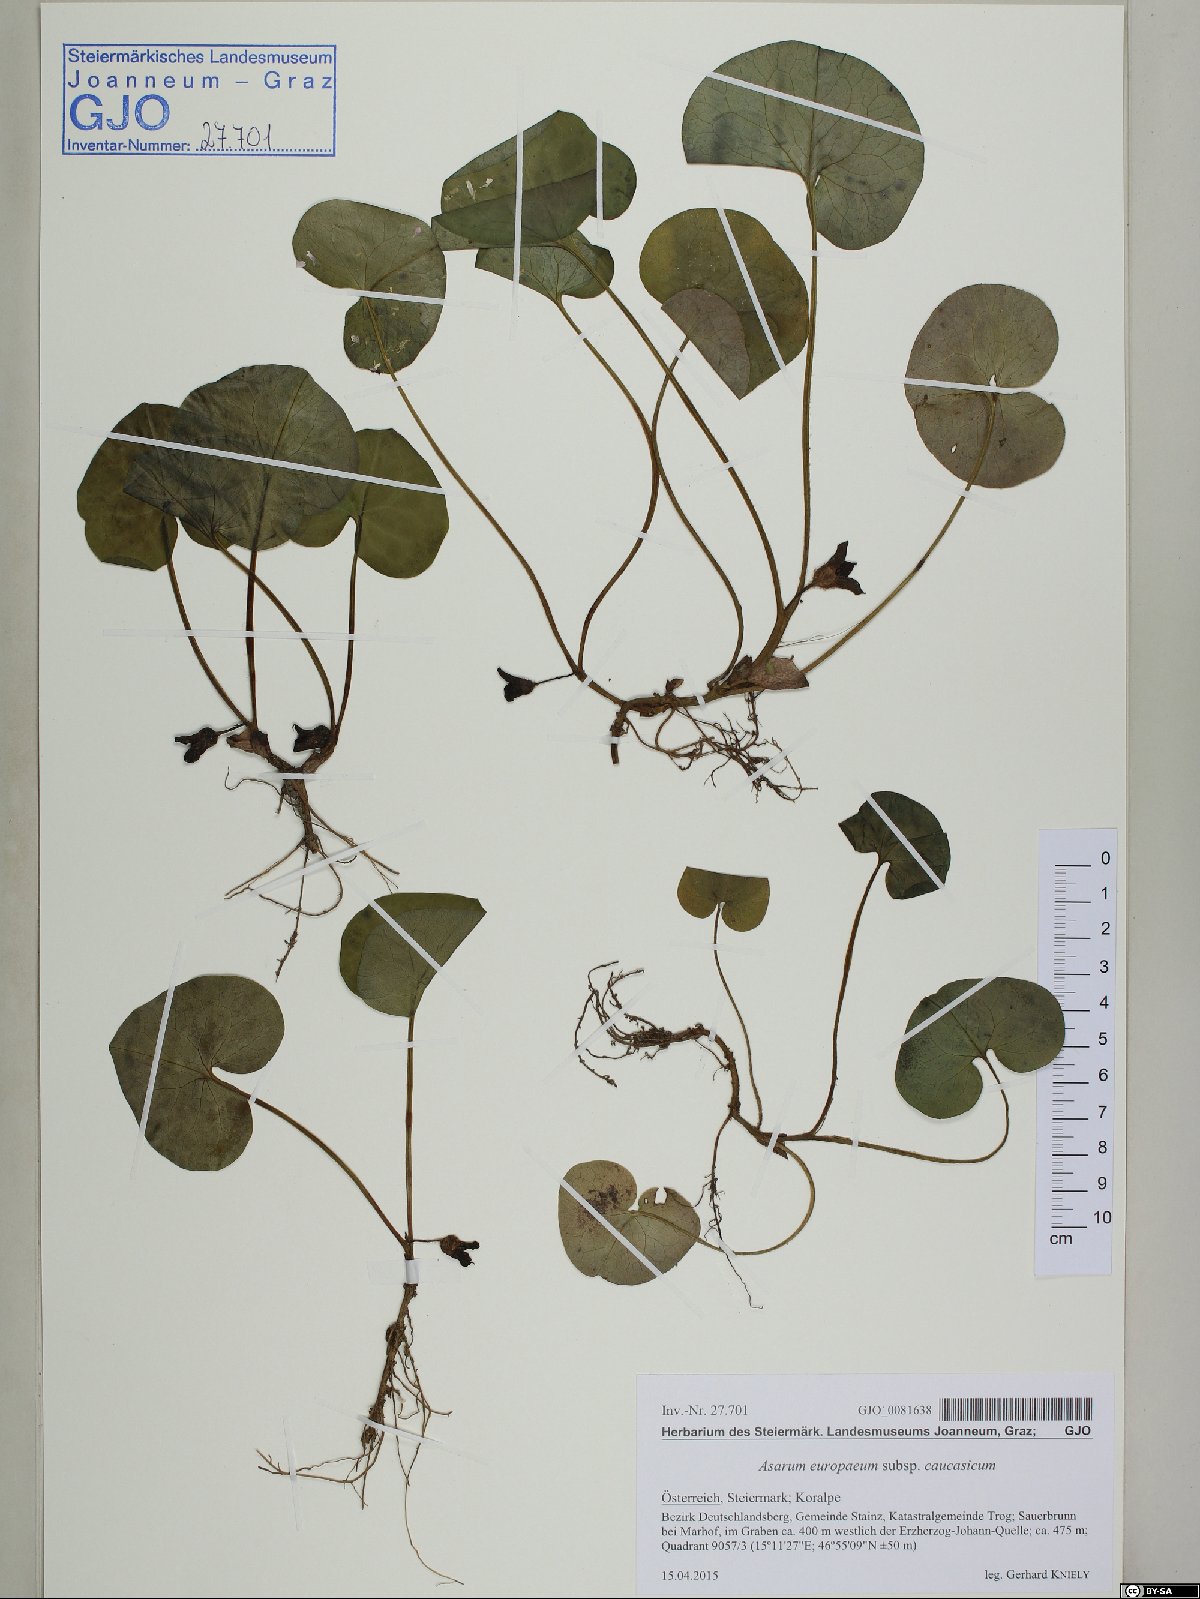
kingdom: Plantae
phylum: Tracheophyta
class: Magnoliopsida
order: Piperales
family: Aristolochiaceae
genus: Asarum
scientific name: Asarum europaeum
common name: Asarabacca
